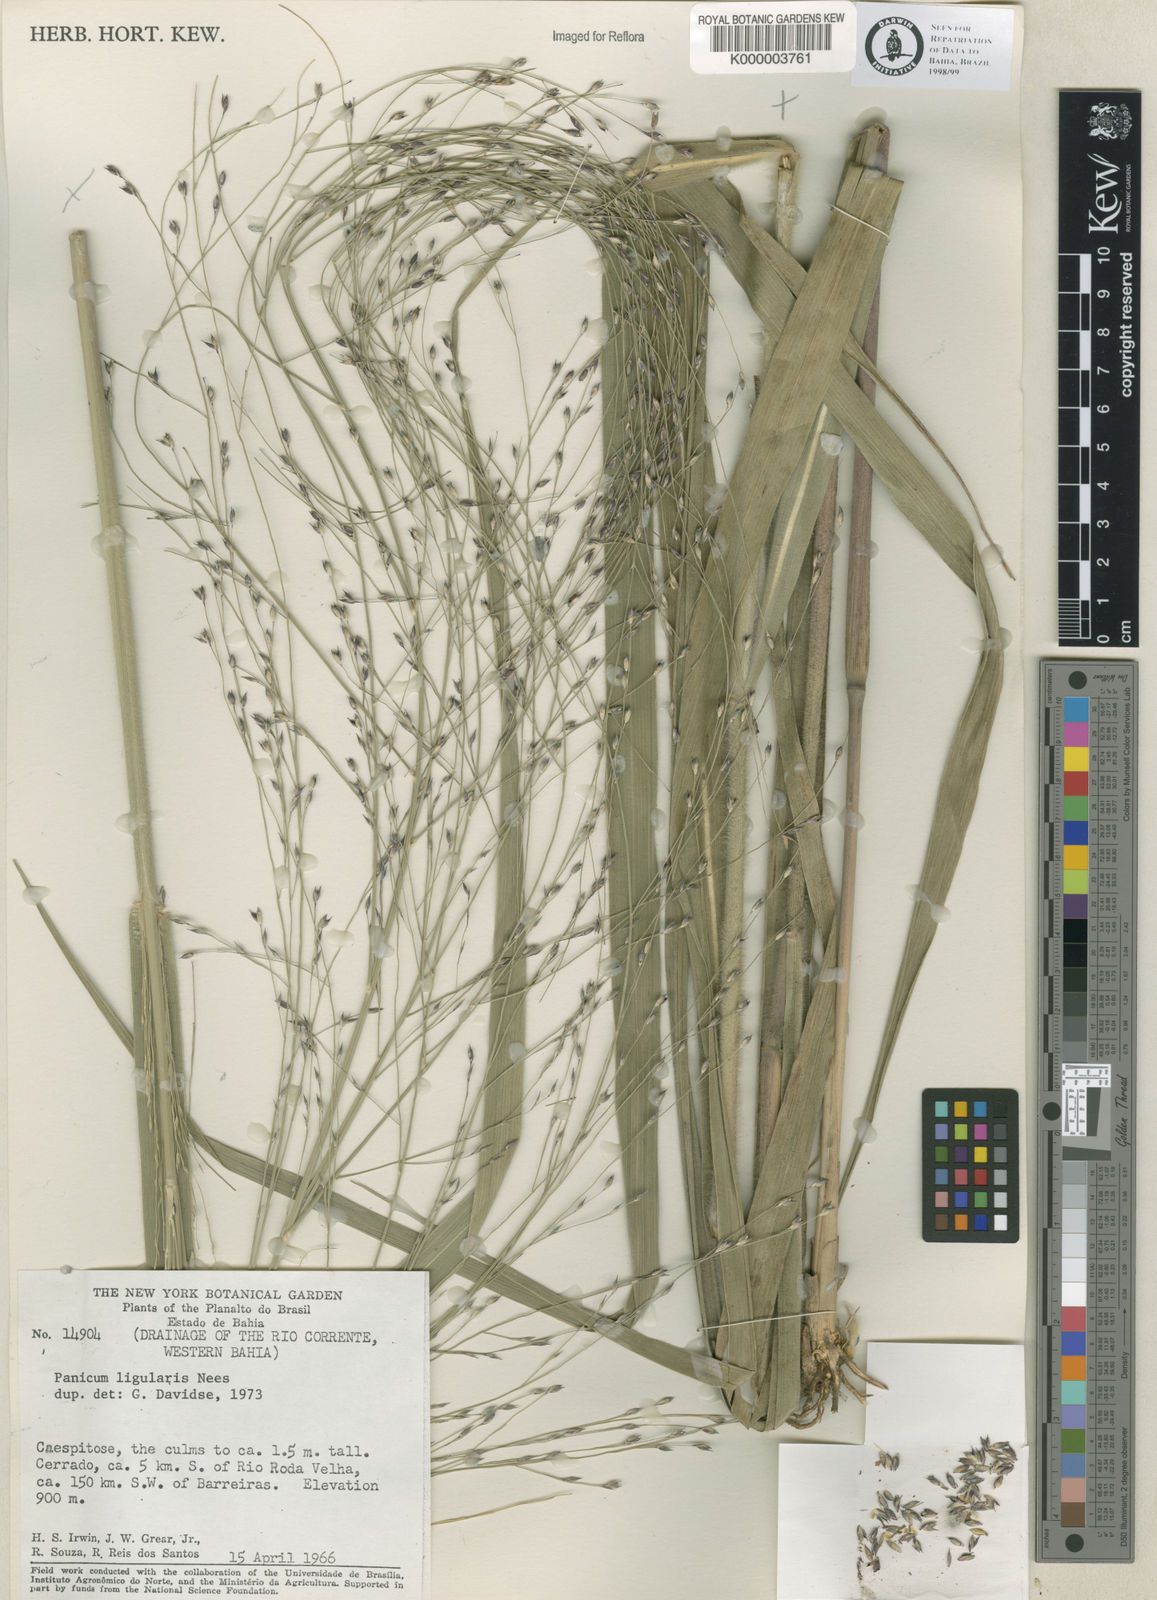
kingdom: Plantae
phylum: Tracheophyta
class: Liliopsida
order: Poales
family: Poaceae
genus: Panicum
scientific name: Panicum
